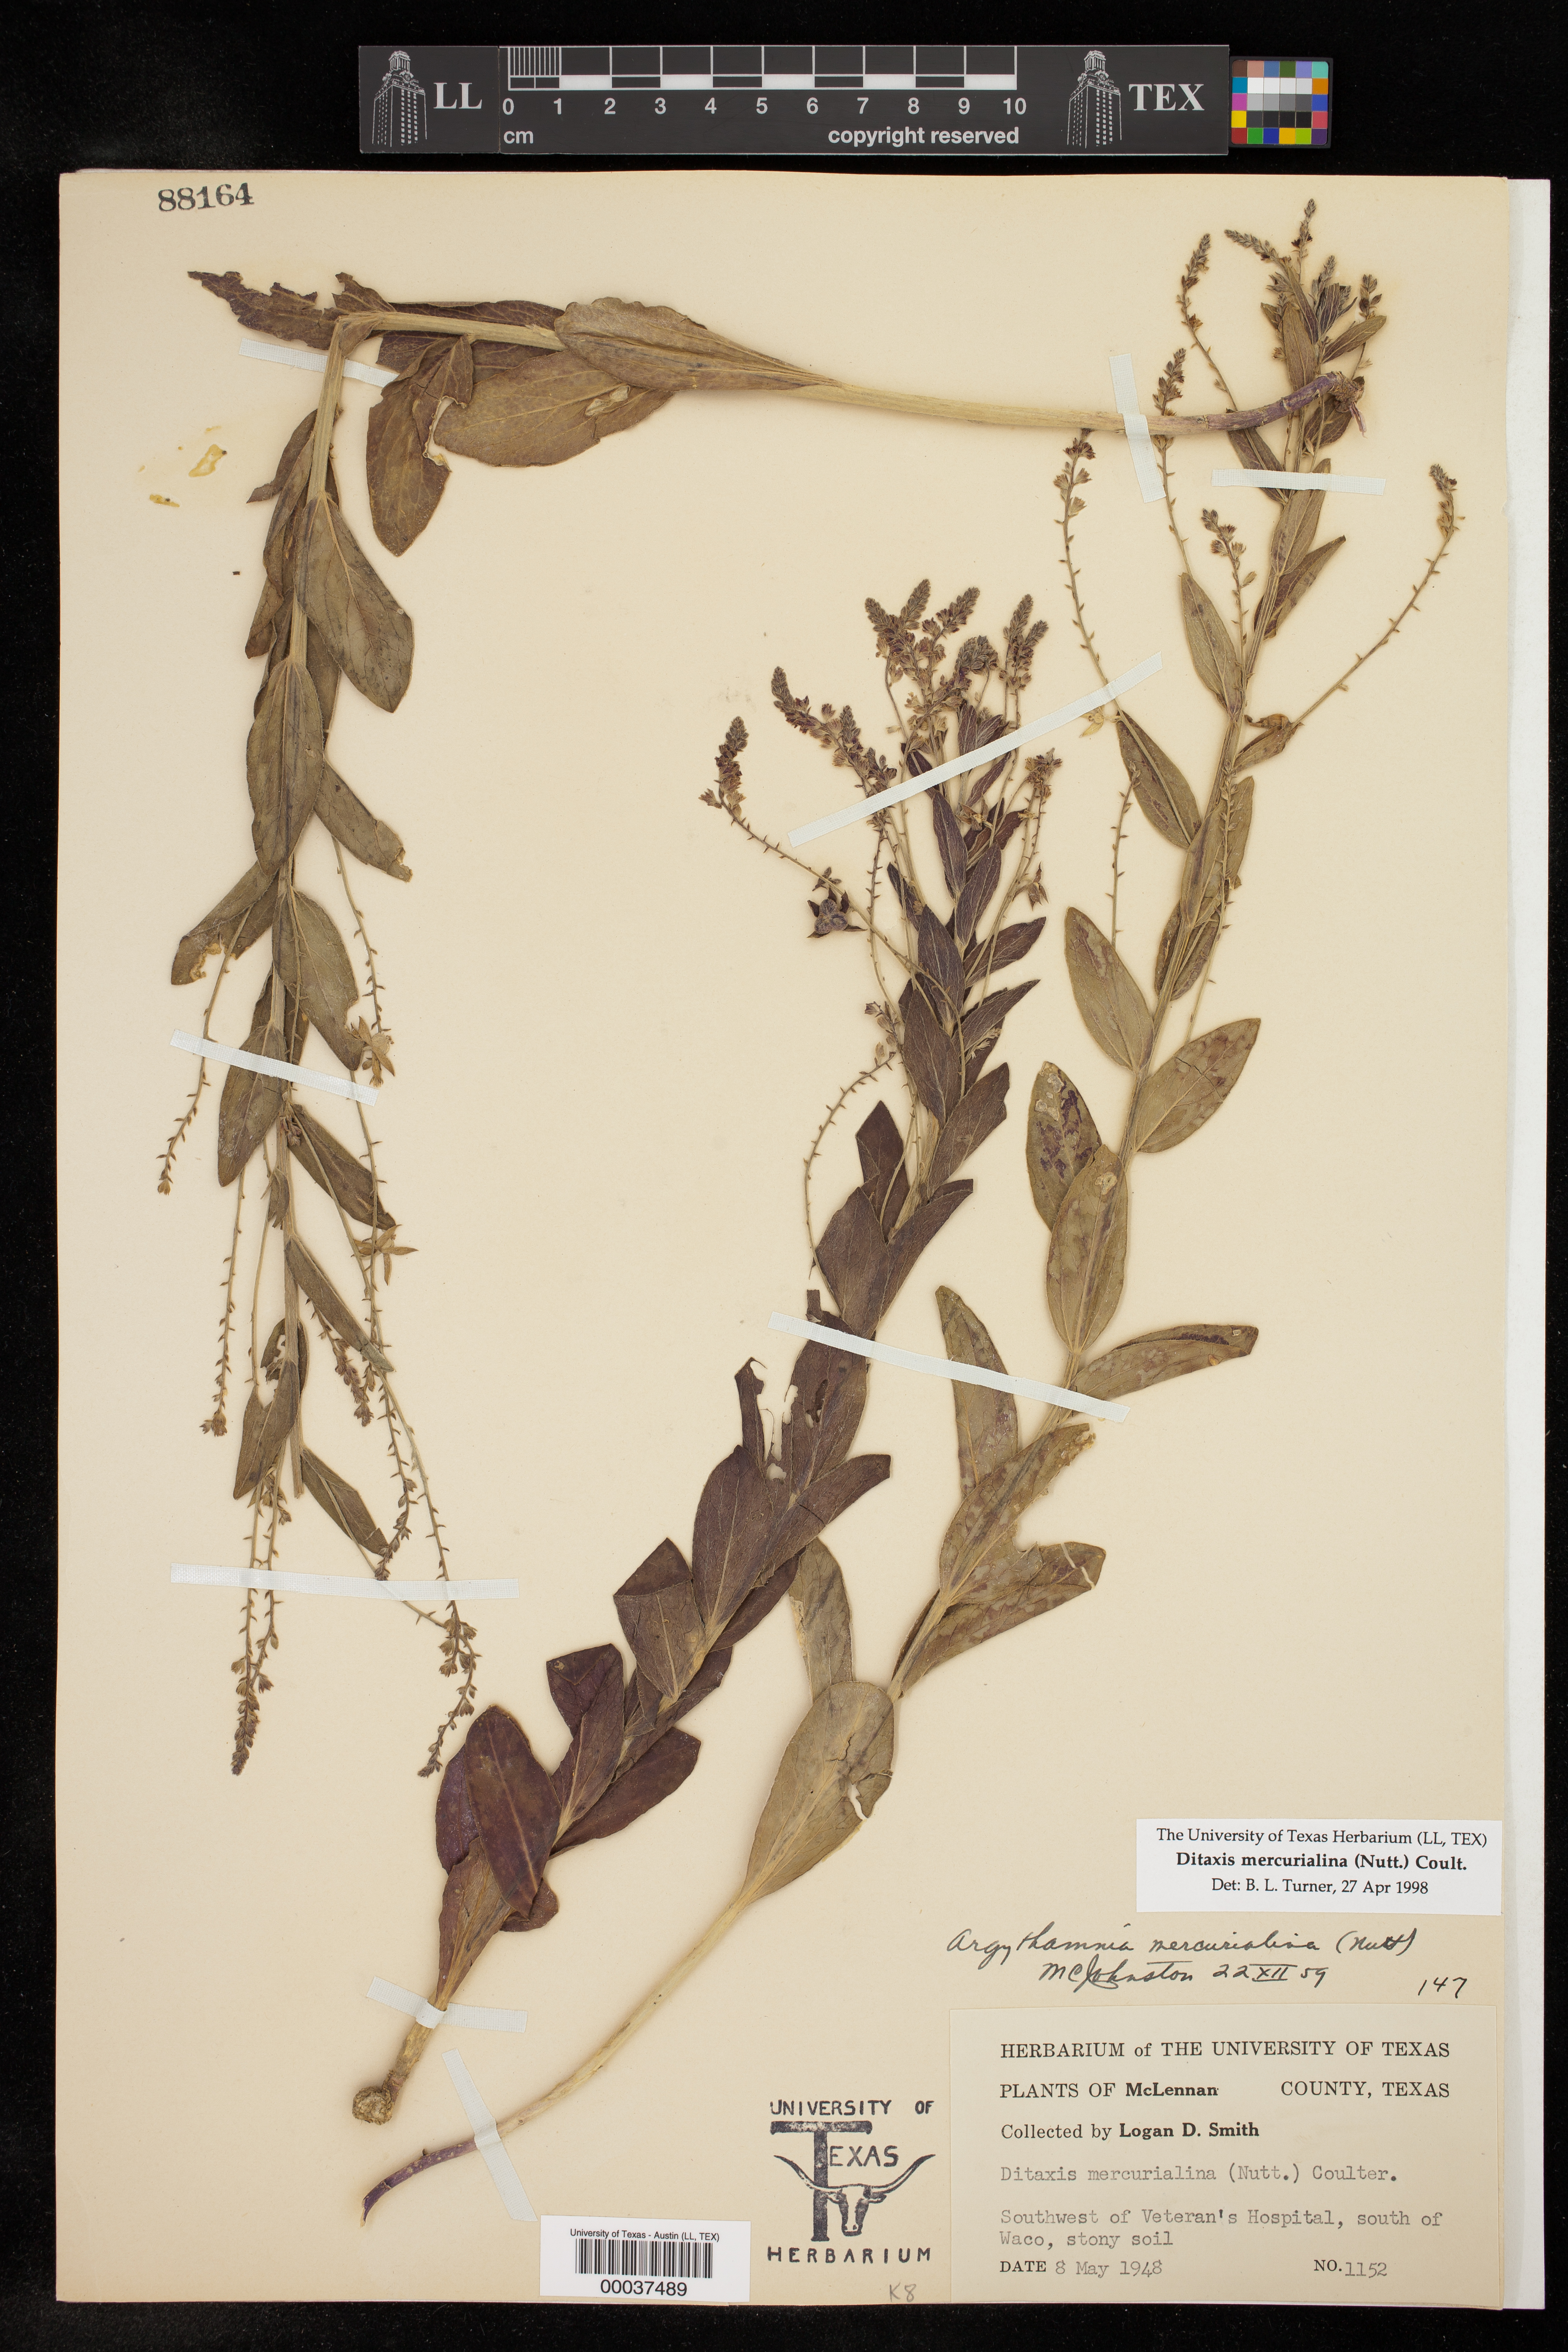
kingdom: Plantae
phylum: Tracheophyta
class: Magnoliopsida
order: Malpighiales
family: Euphorbiaceae
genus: Ditaxis
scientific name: Ditaxis mercurialina
